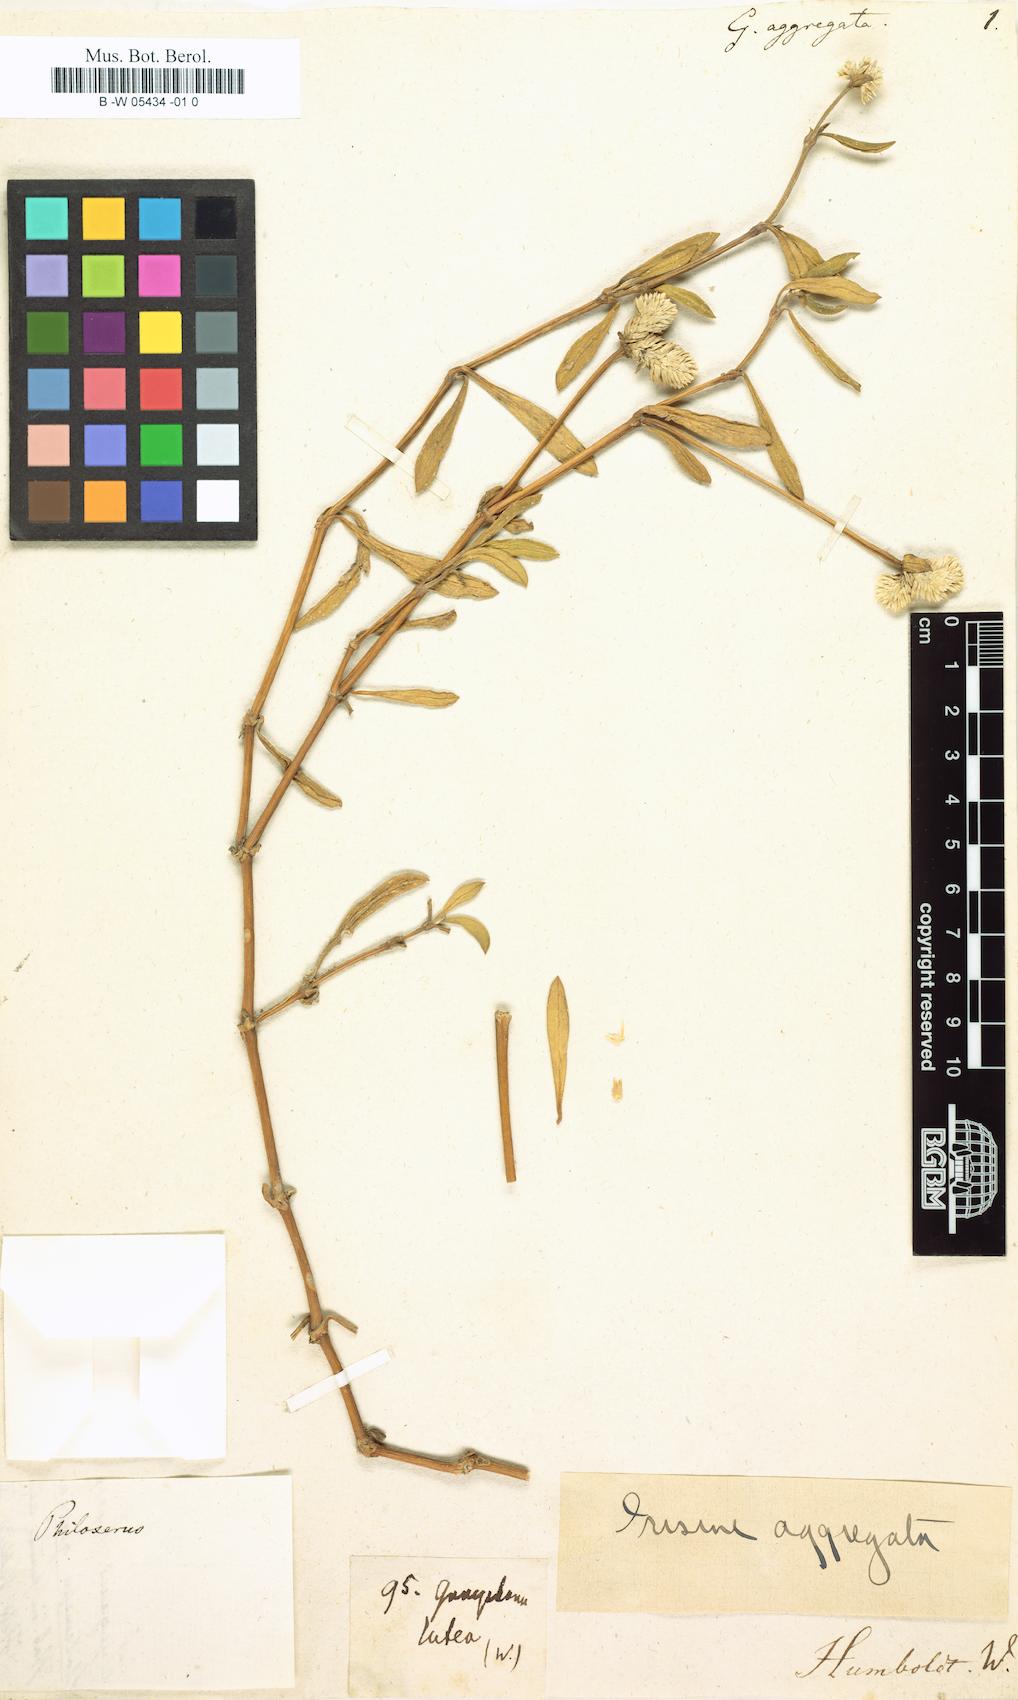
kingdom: Plantae
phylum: Tracheophyta
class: Magnoliopsida
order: Caryophyllales
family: Amaranthaceae
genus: Gomphrena
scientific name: Gomphrena vermicularis
